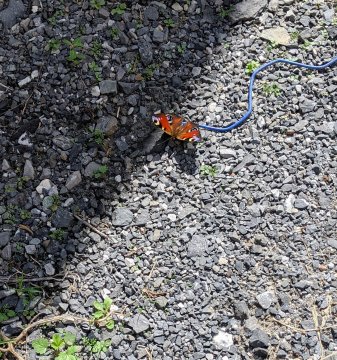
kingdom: Animalia
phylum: Arthropoda
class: Insecta
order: Lepidoptera
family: Nymphalidae
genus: Aglais
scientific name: Aglais io
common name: European Peacock
